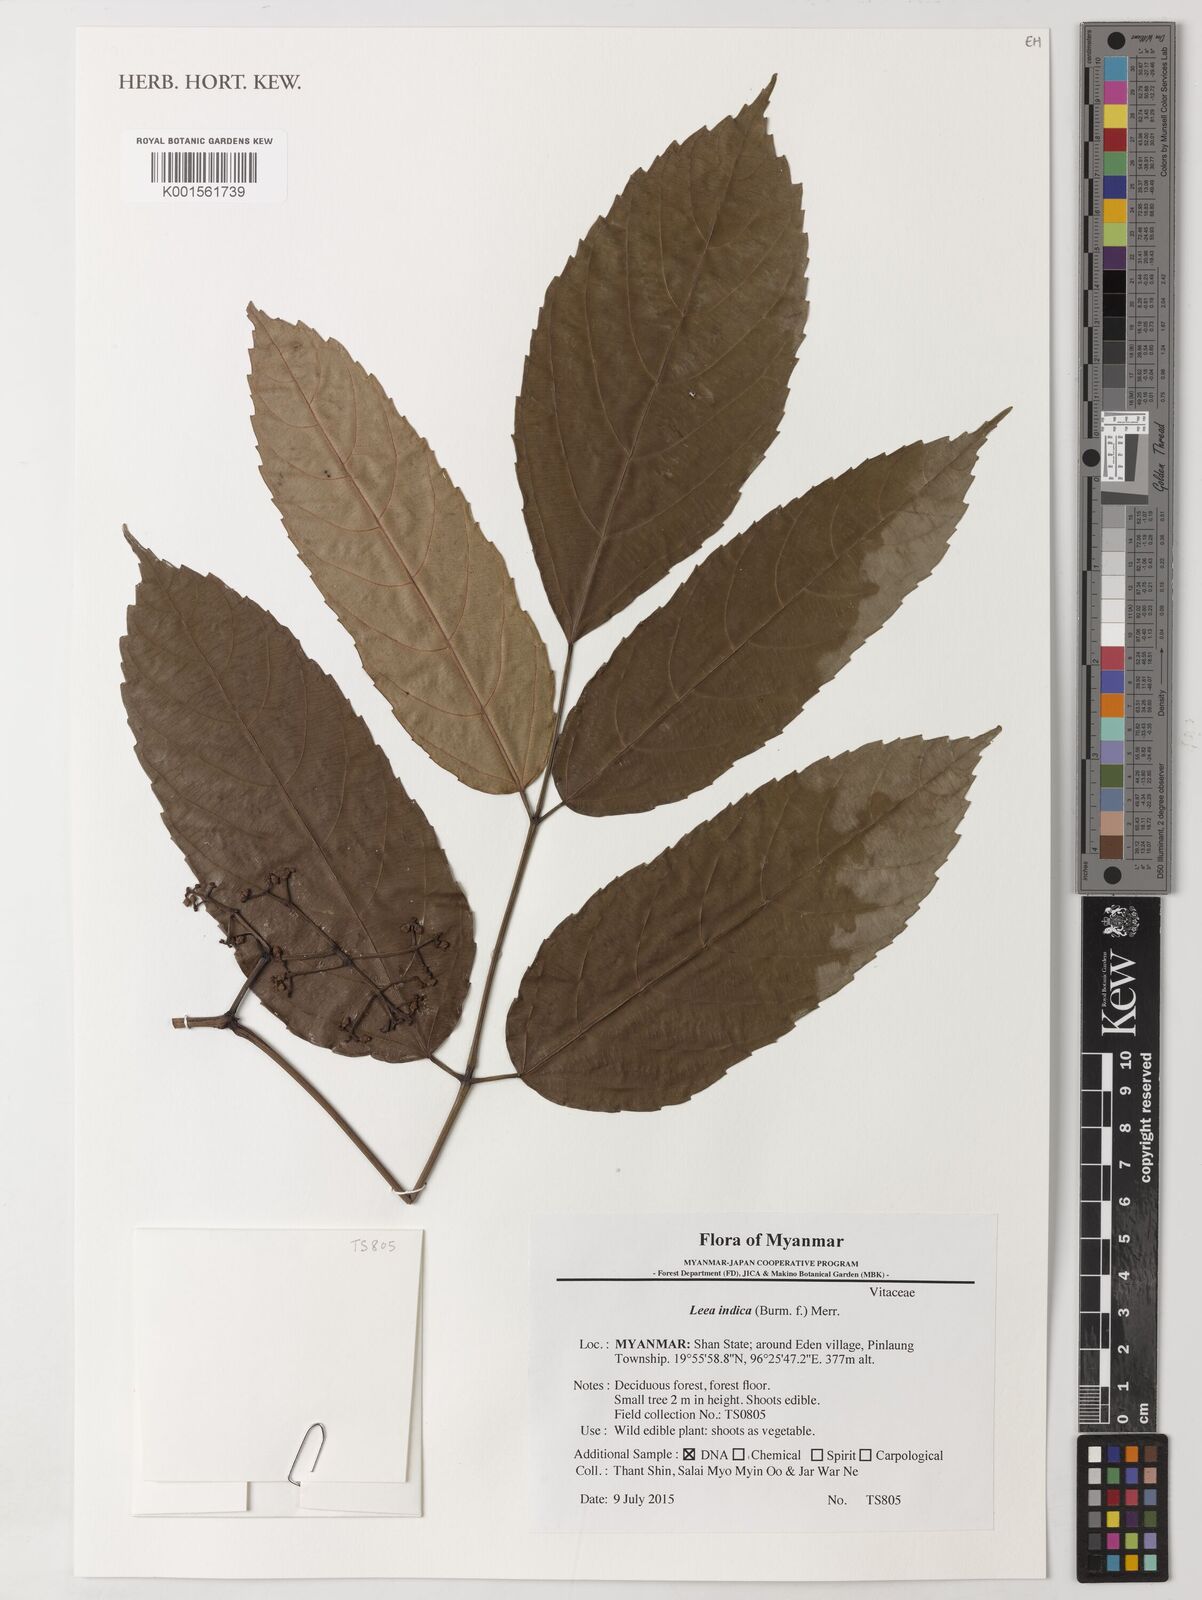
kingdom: Plantae
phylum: Tracheophyta
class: Magnoliopsida
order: Vitales
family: Vitaceae
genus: Leea
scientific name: Leea indica
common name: Bandicoot-berry
